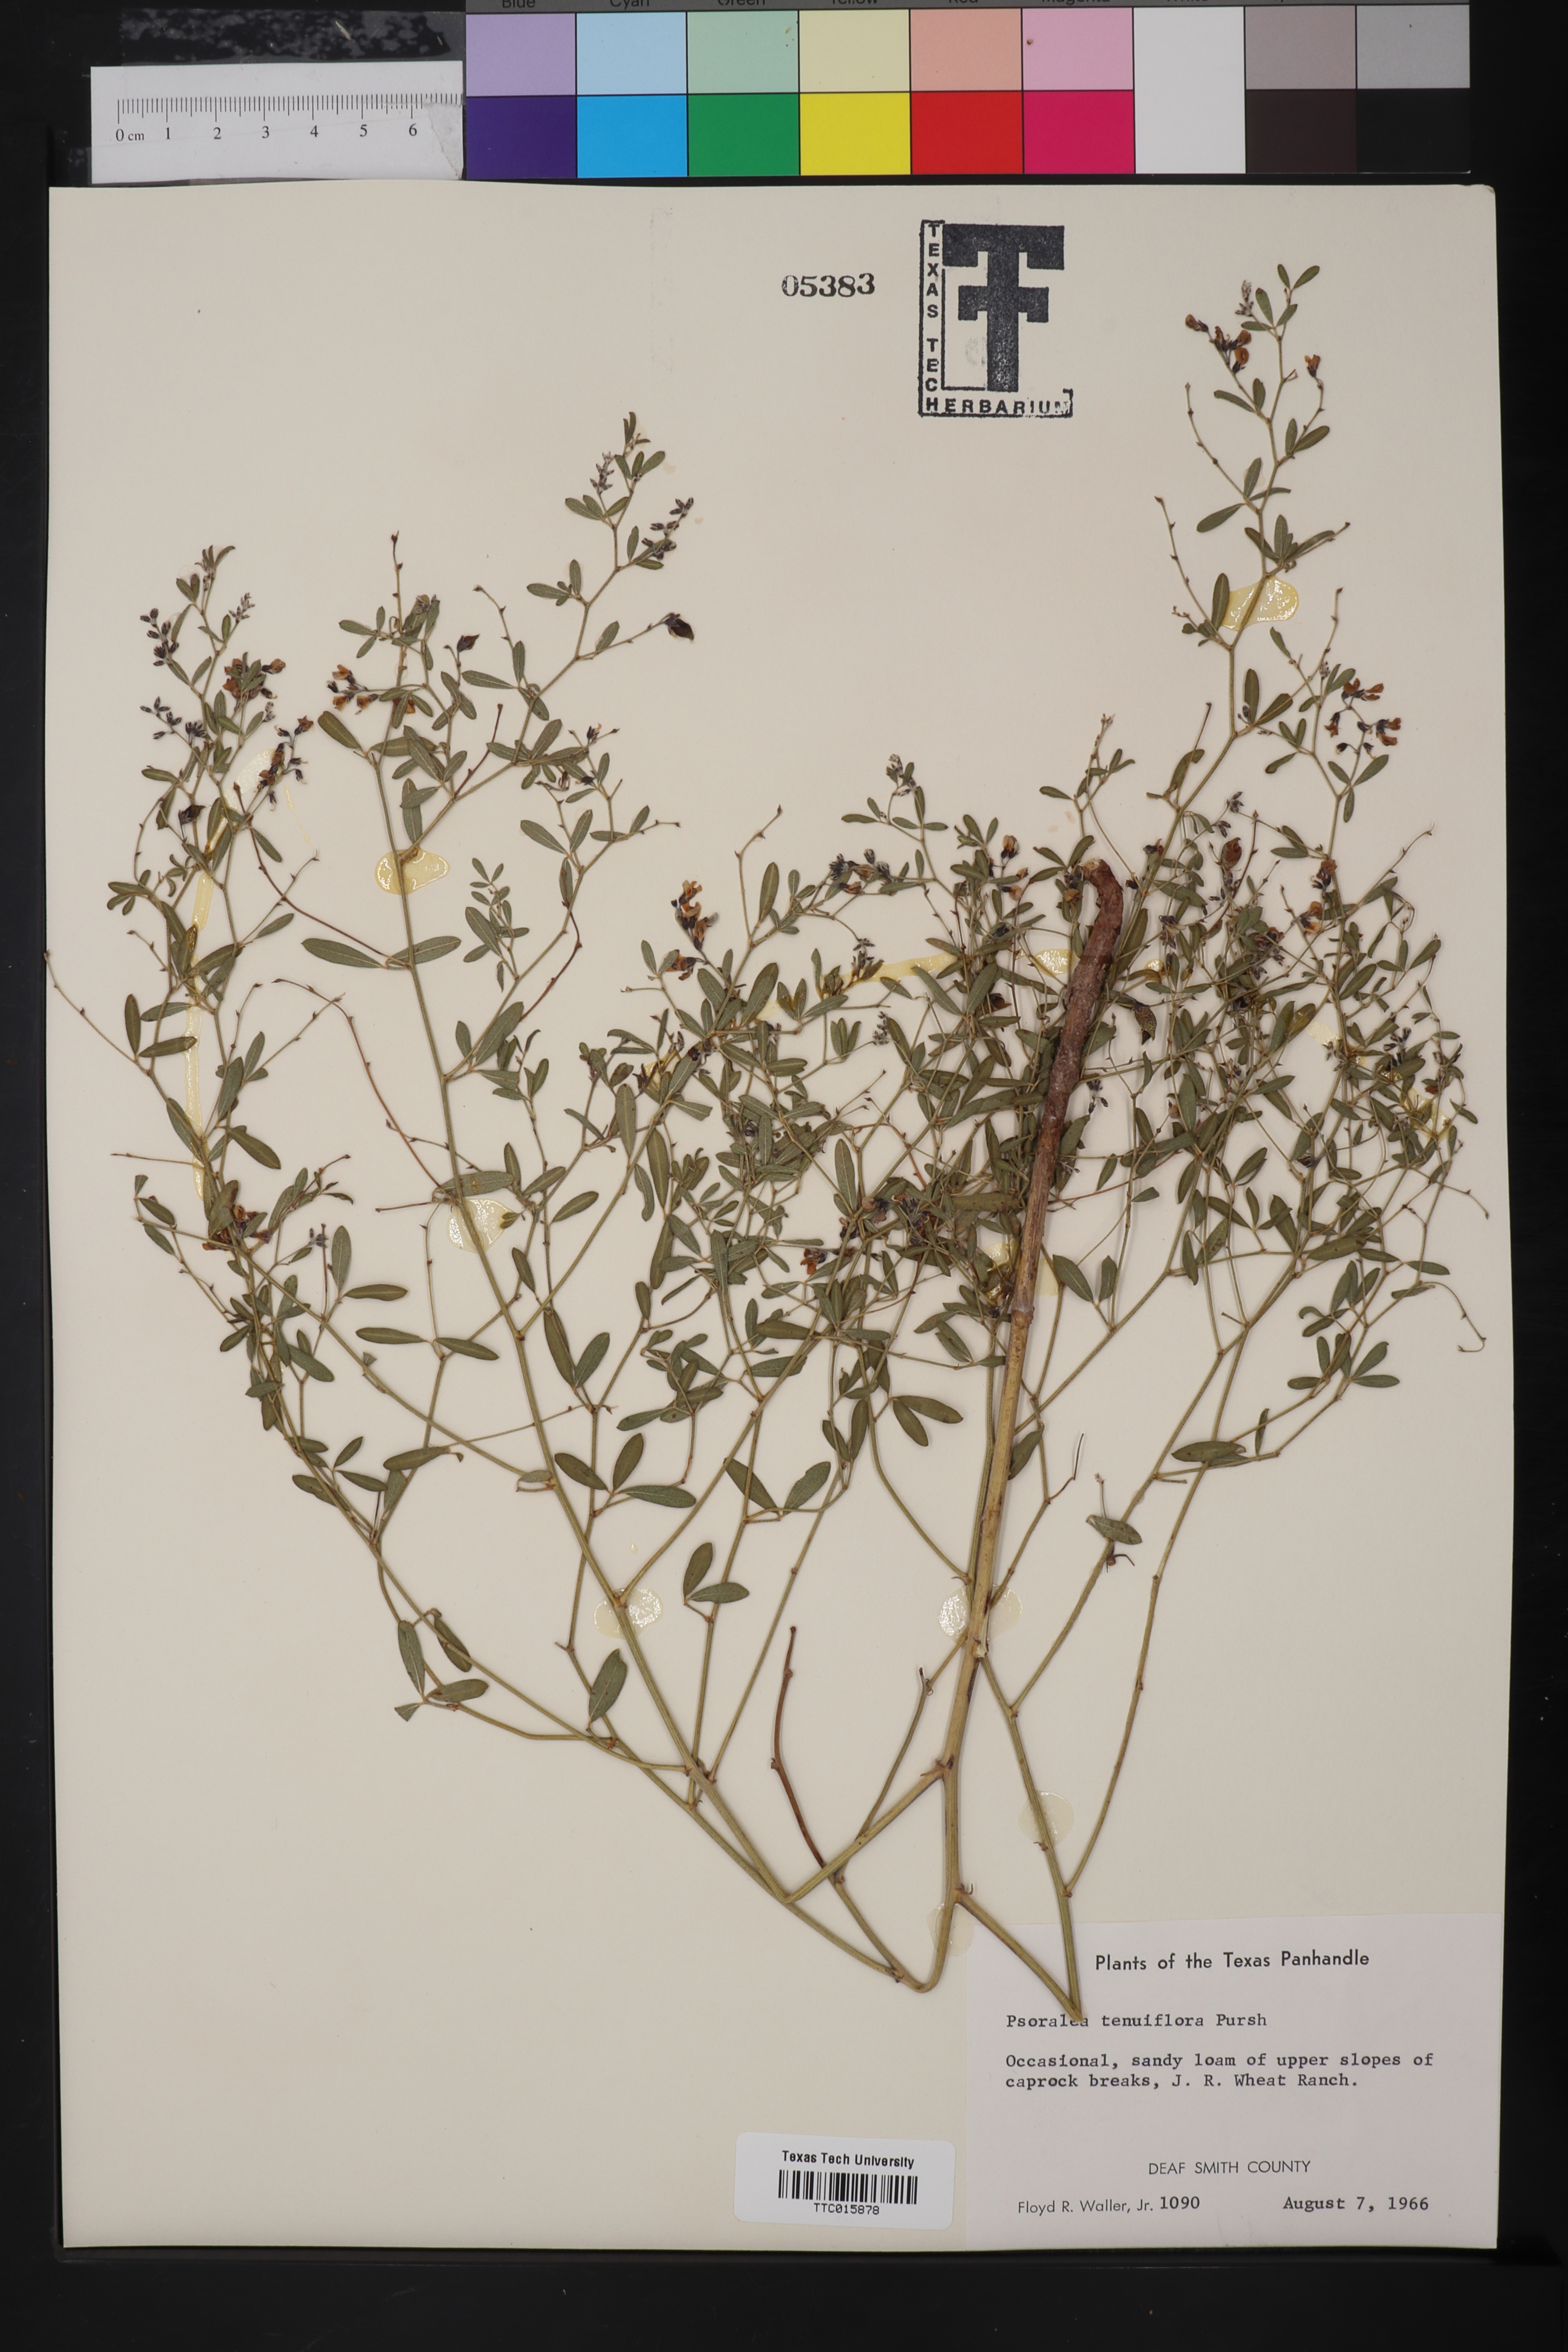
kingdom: Plantae
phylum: Tracheophyta
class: Magnoliopsida
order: Fabales
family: Fabaceae
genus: Pediomelum
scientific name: Pediomelum tenuiflorum
